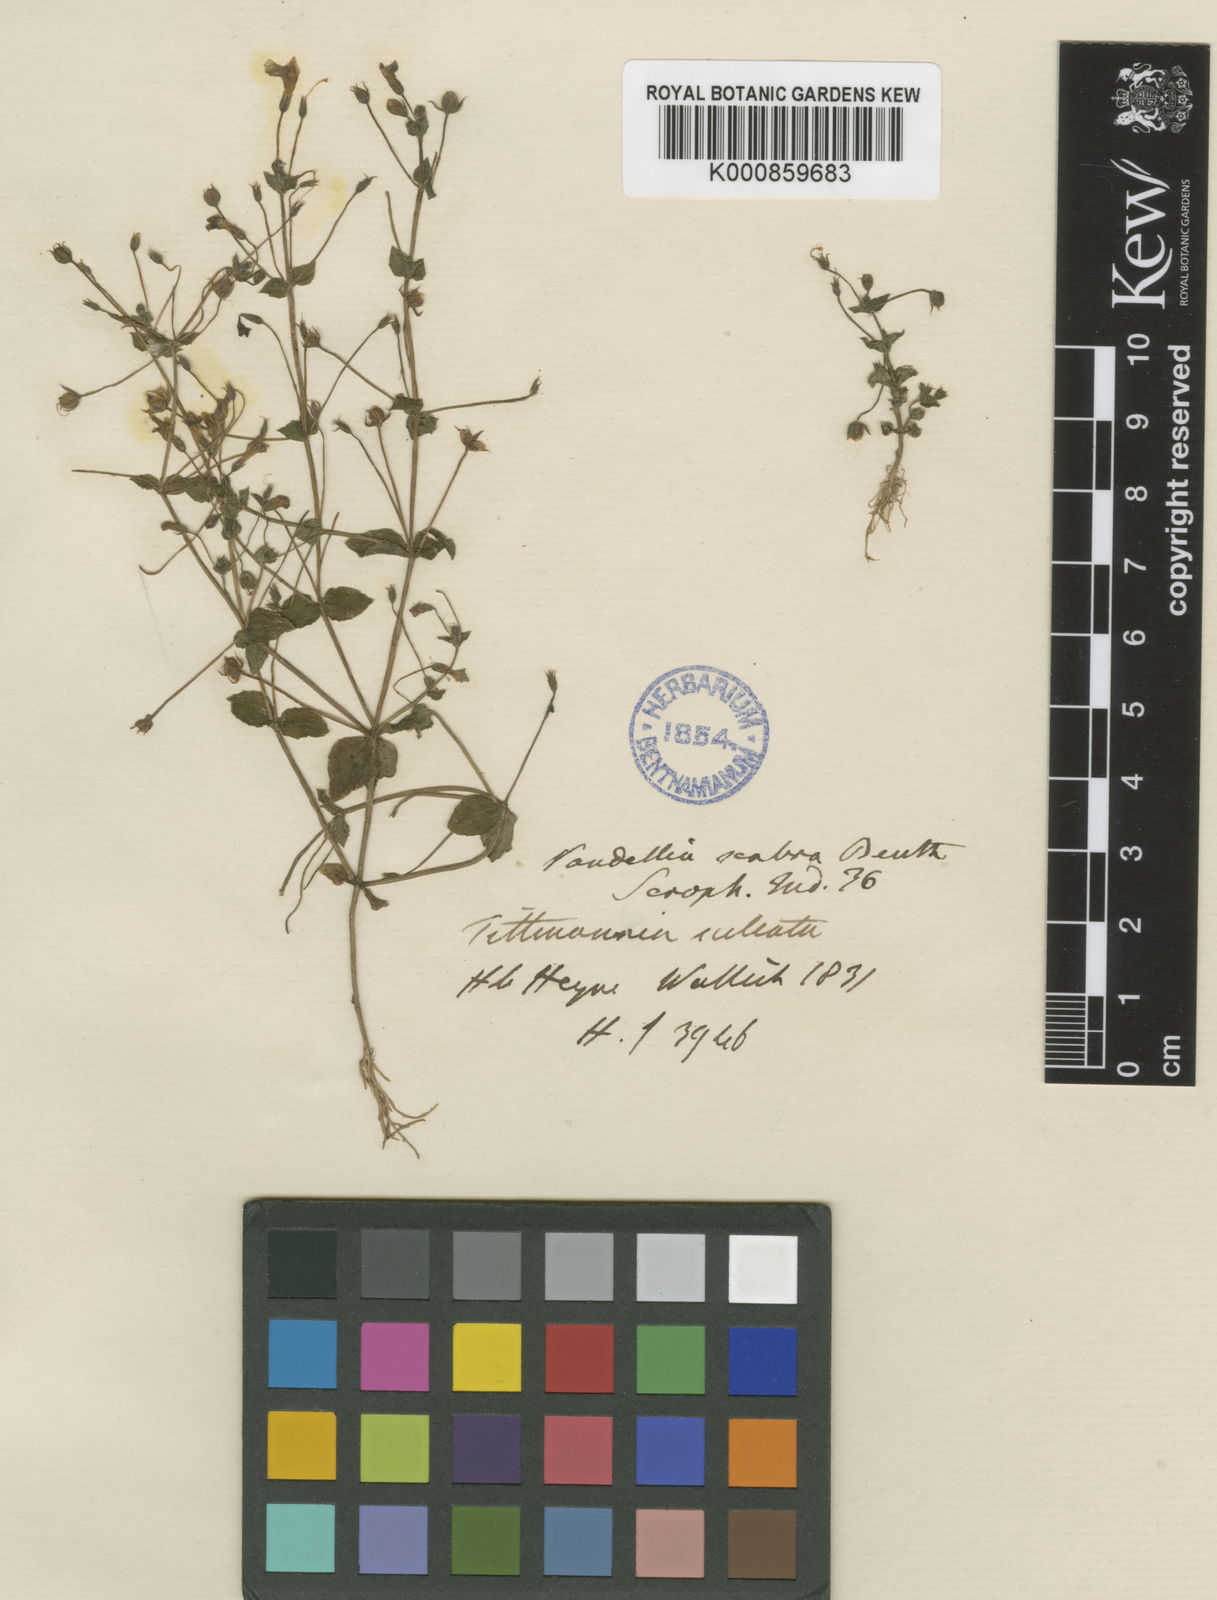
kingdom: Plantae
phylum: Tracheophyta
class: Magnoliopsida
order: Lamiales
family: Linderniaceae
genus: Yamazakia
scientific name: Yamazakia pusilla
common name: Tiny slitwort
